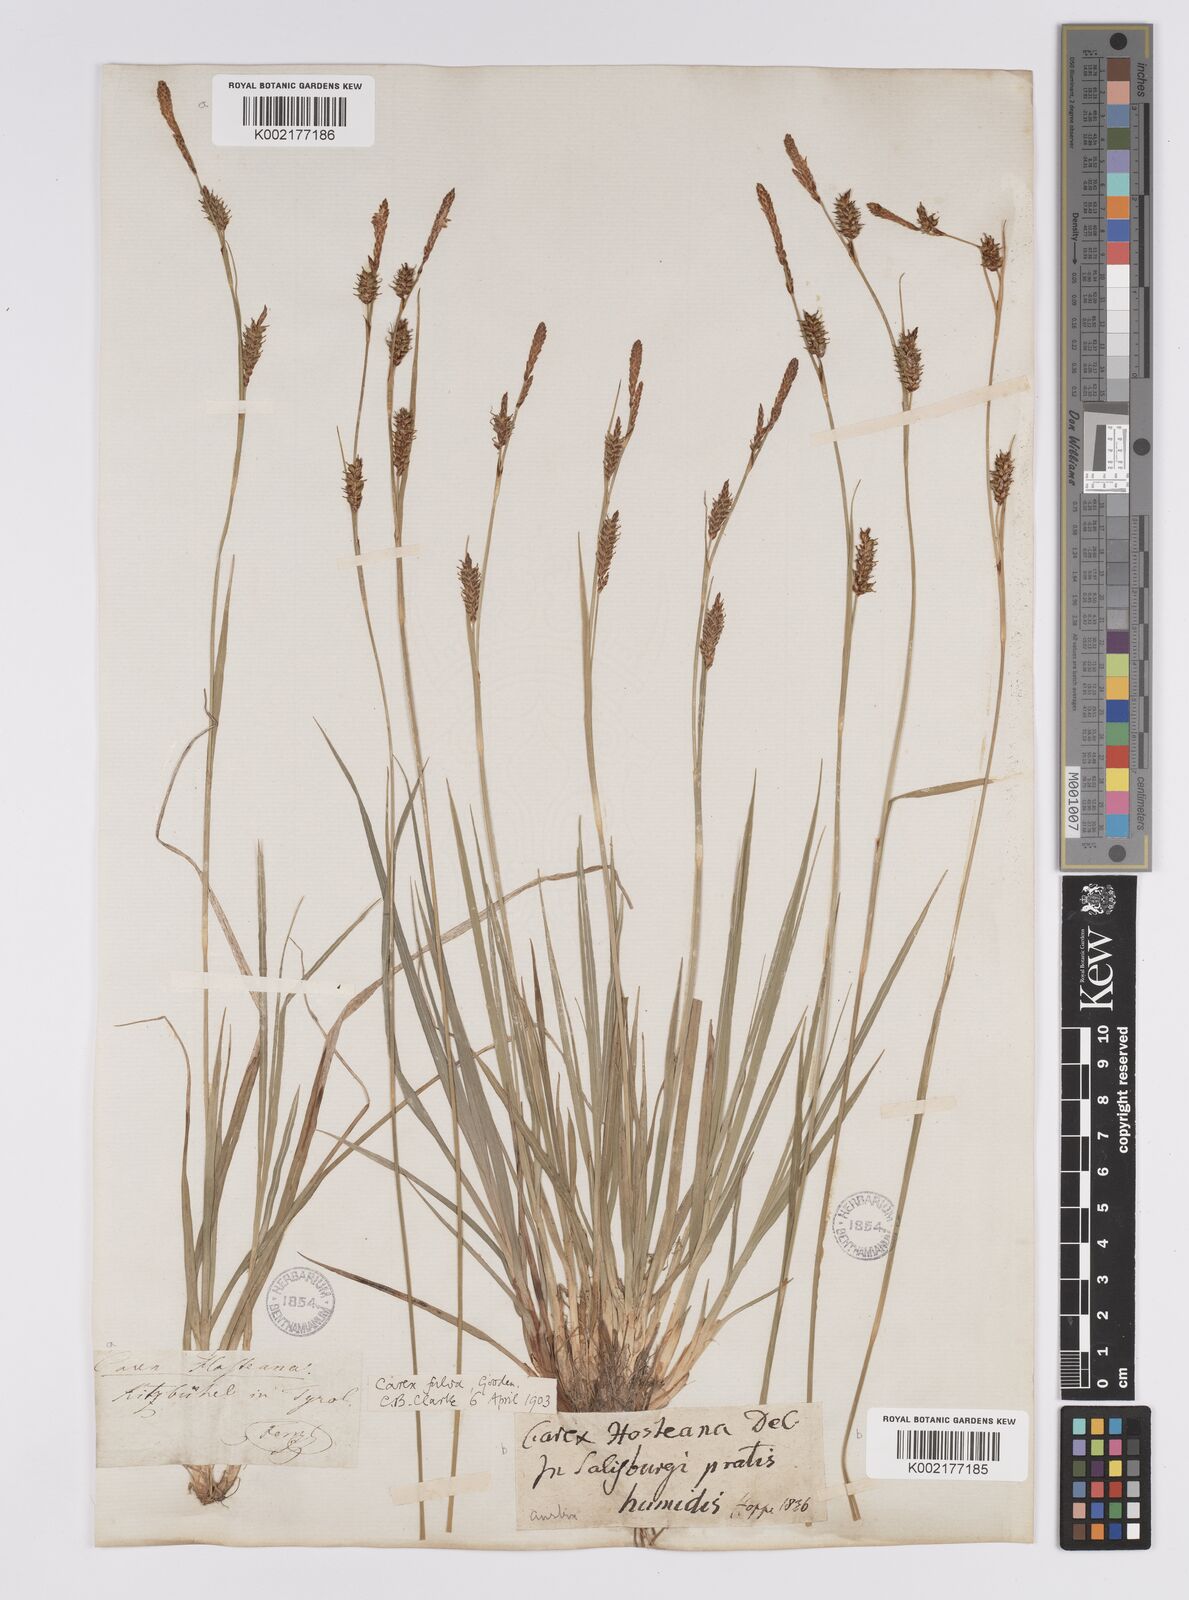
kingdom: Plantae
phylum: Tracheophyta
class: Liliopsida
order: Poales
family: Cyperaceae
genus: Carex
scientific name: Carex hostiana
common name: Tawny sedge
